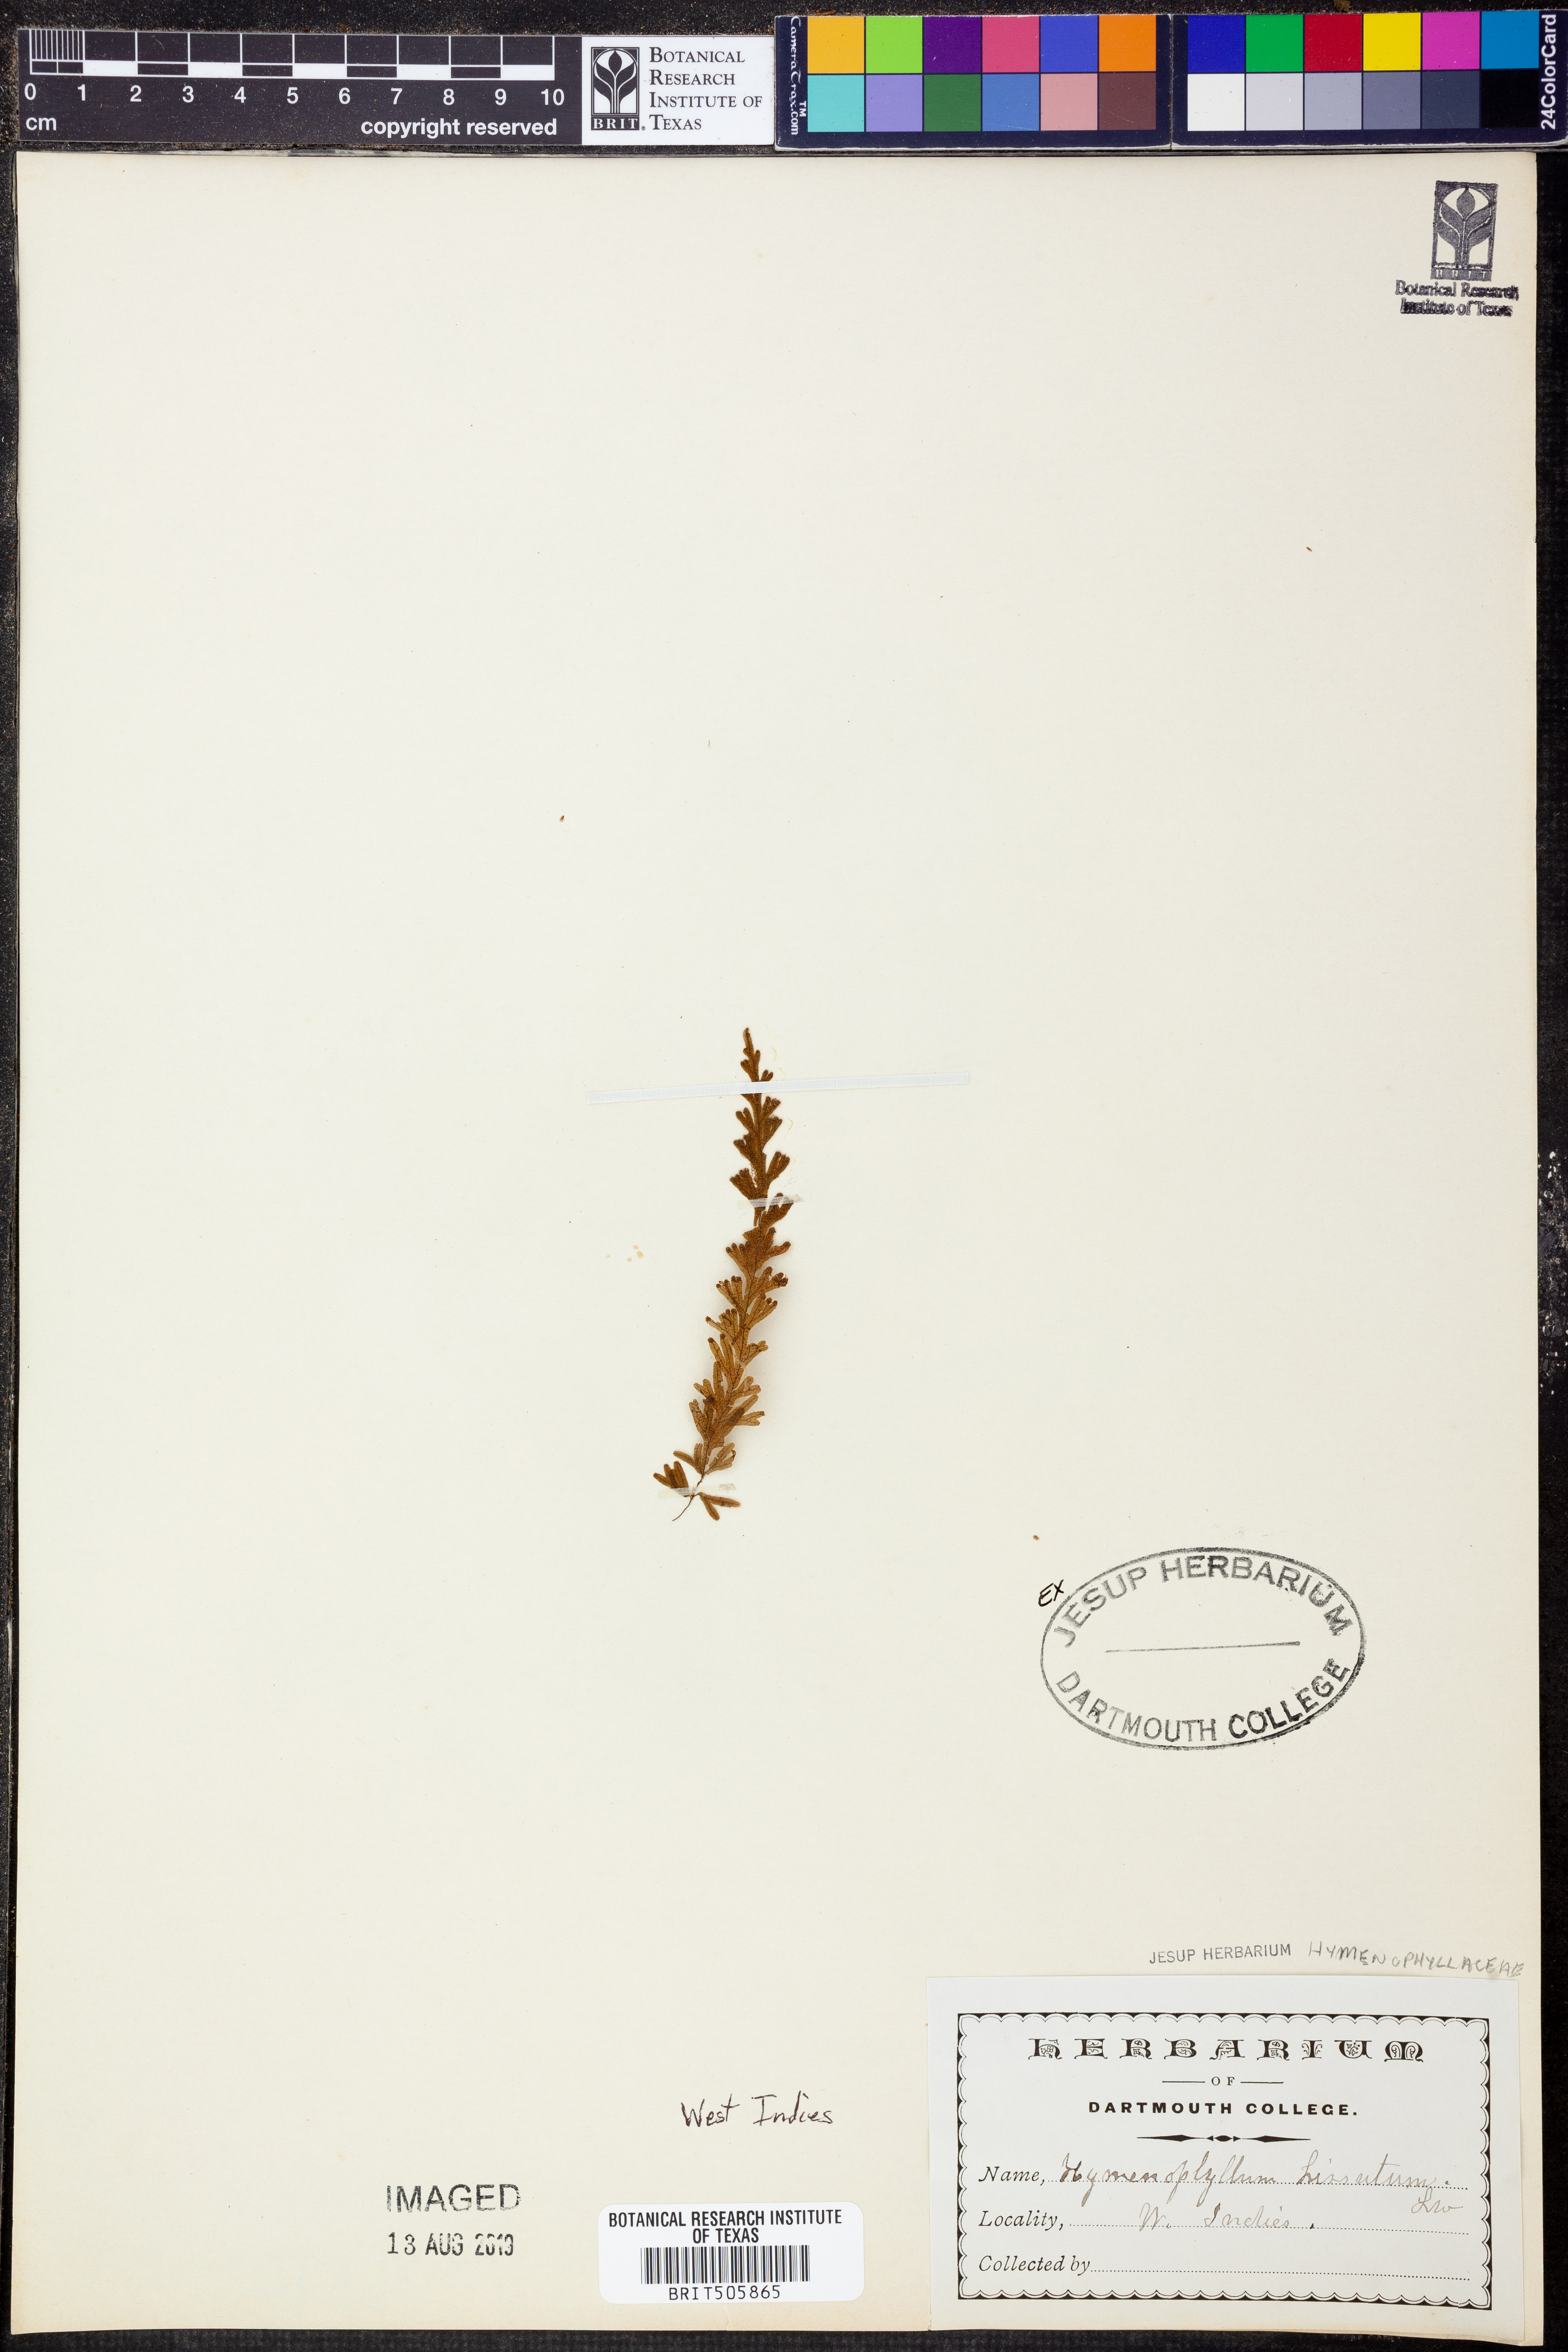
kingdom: Plantae
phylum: Tracheophyta
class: Polypodiopsida
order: Hymenophyllales
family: Hymenophyllaceae
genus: Hymenophyllum
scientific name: Hymenophyllum hirsutum
